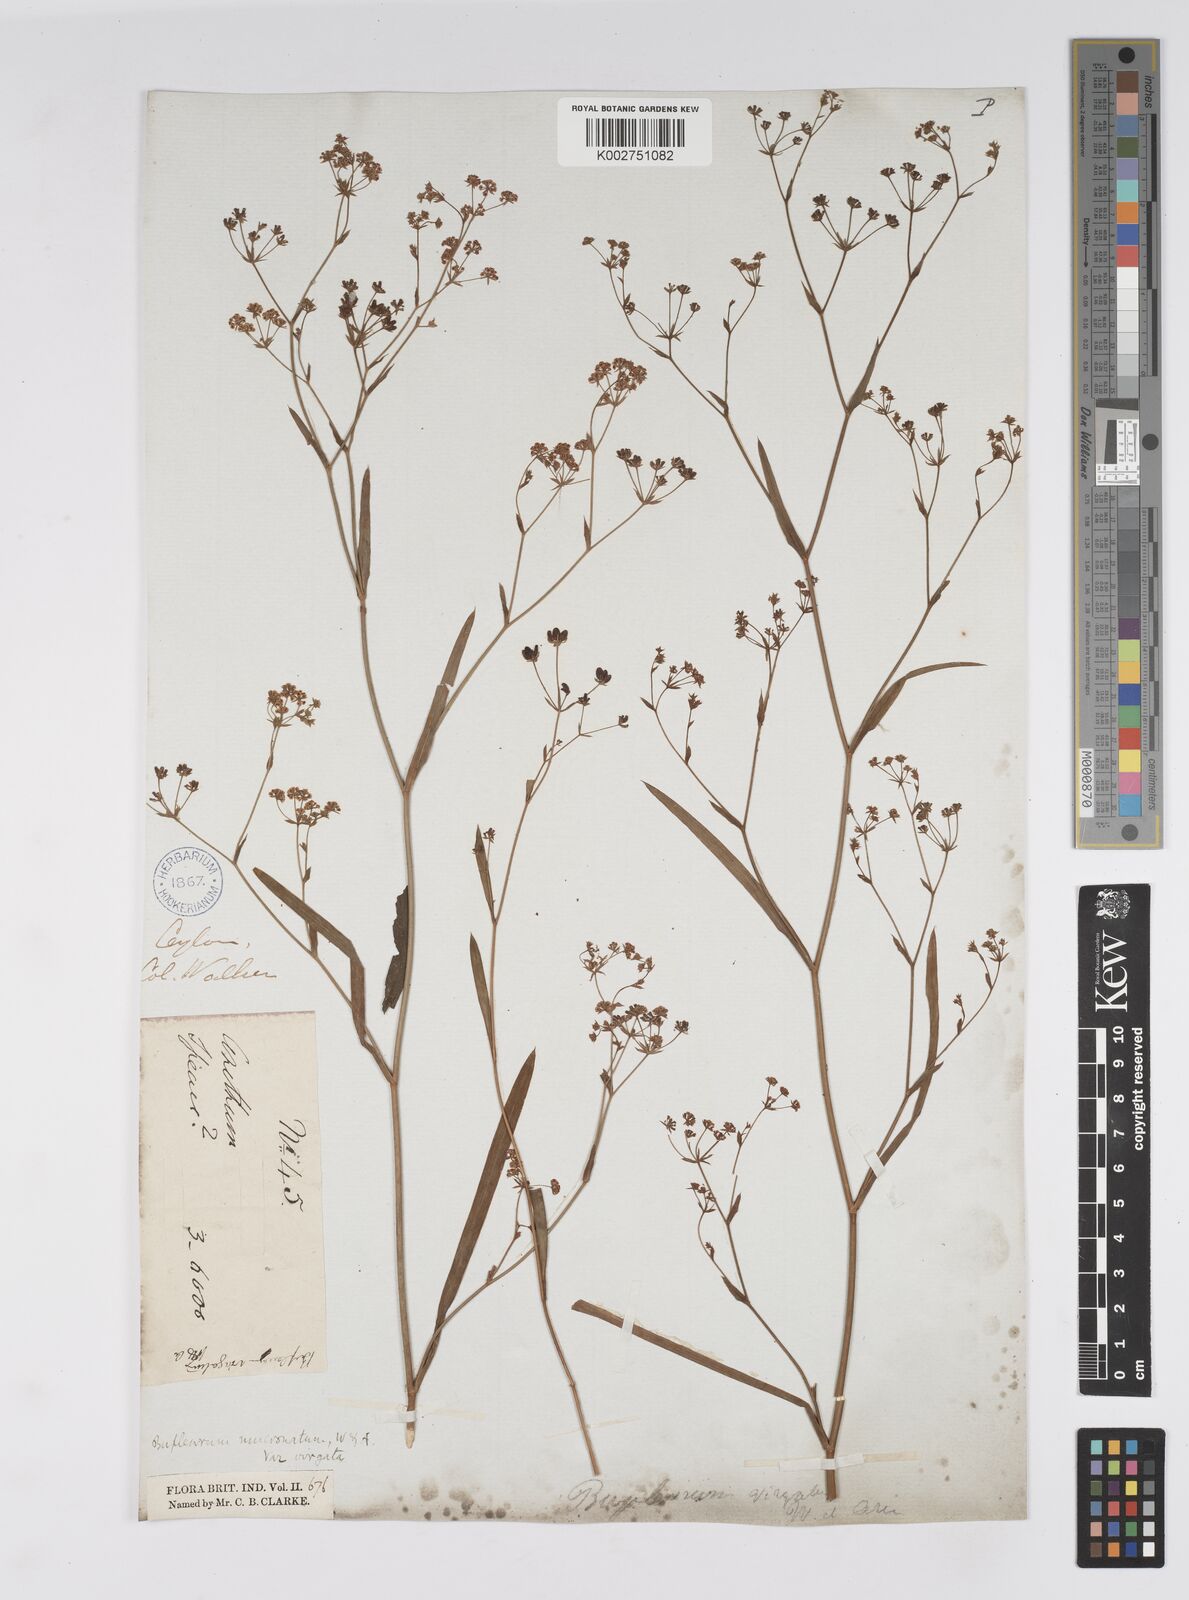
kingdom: Plantae
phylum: Tracheophyta
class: Magnoliopsida
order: Apiales
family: Apiaceae
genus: Bupleurum
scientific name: Bupleurum ramosissimum
